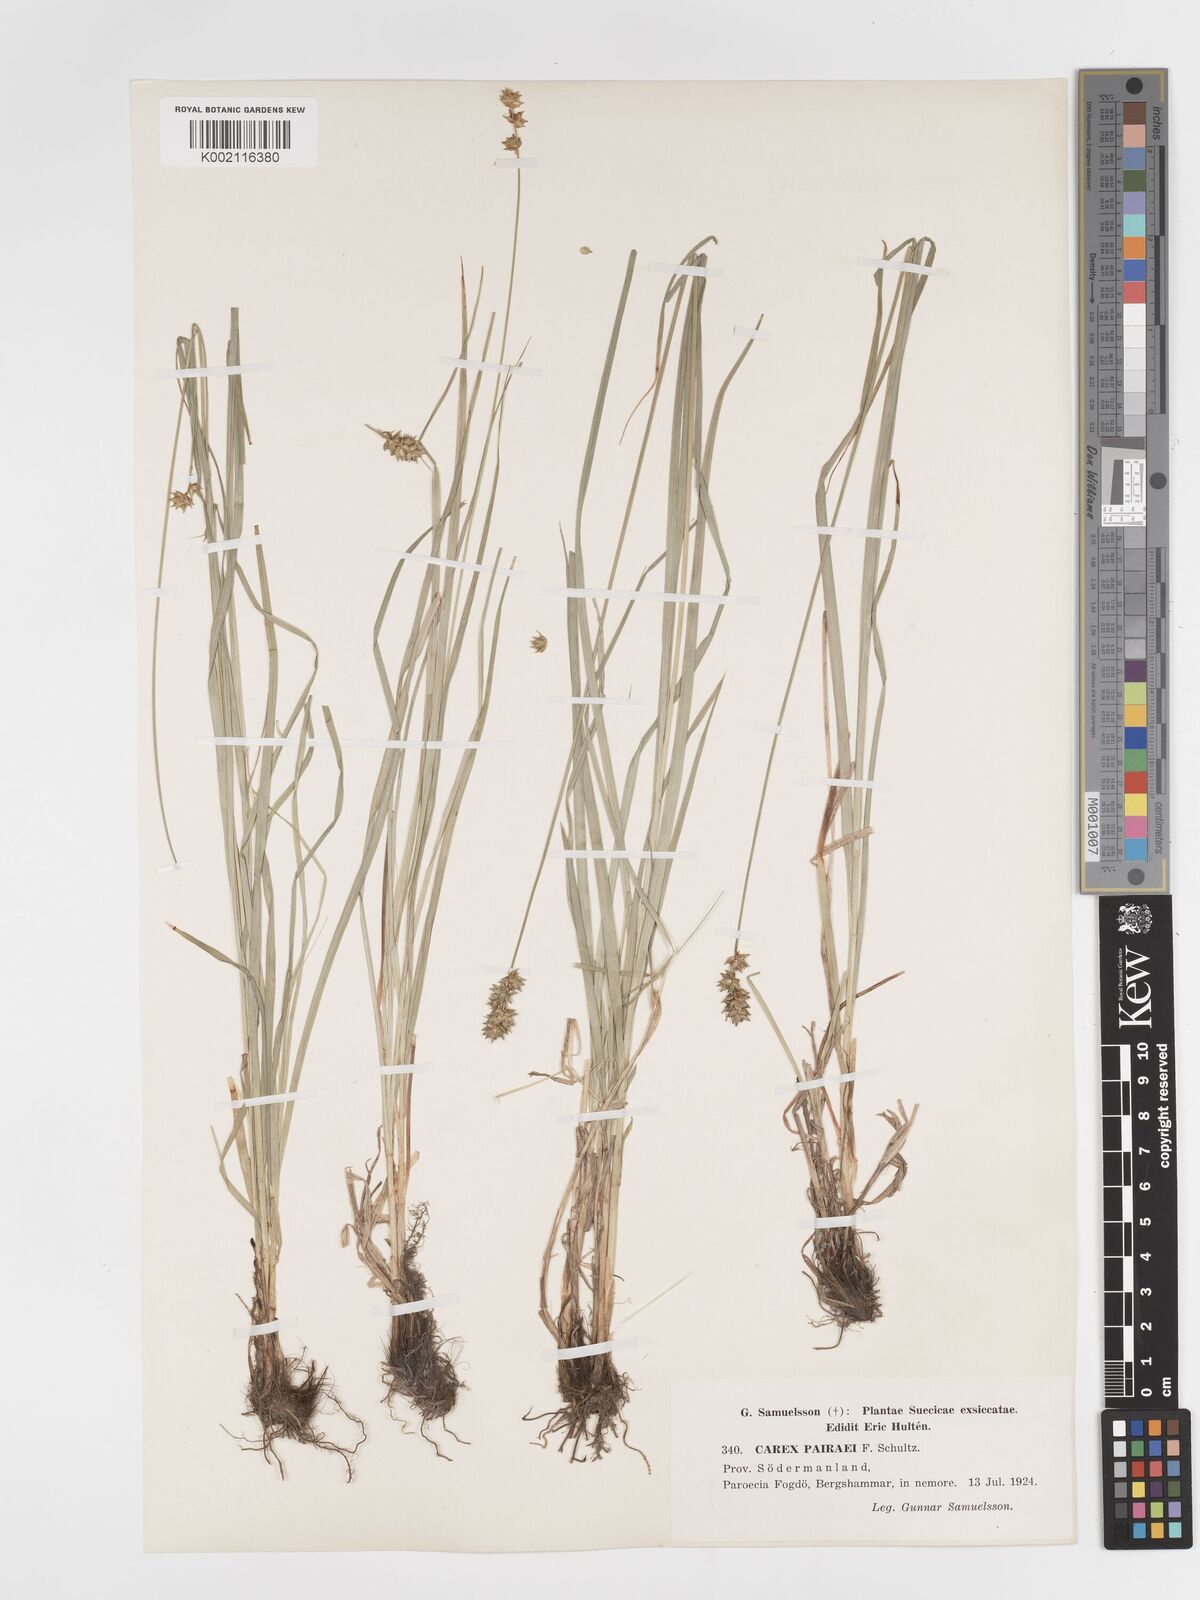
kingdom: Plantae
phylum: Tracheophyta
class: Liliopsida
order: Poales
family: Cyperaceae
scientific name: Cyperaceae
